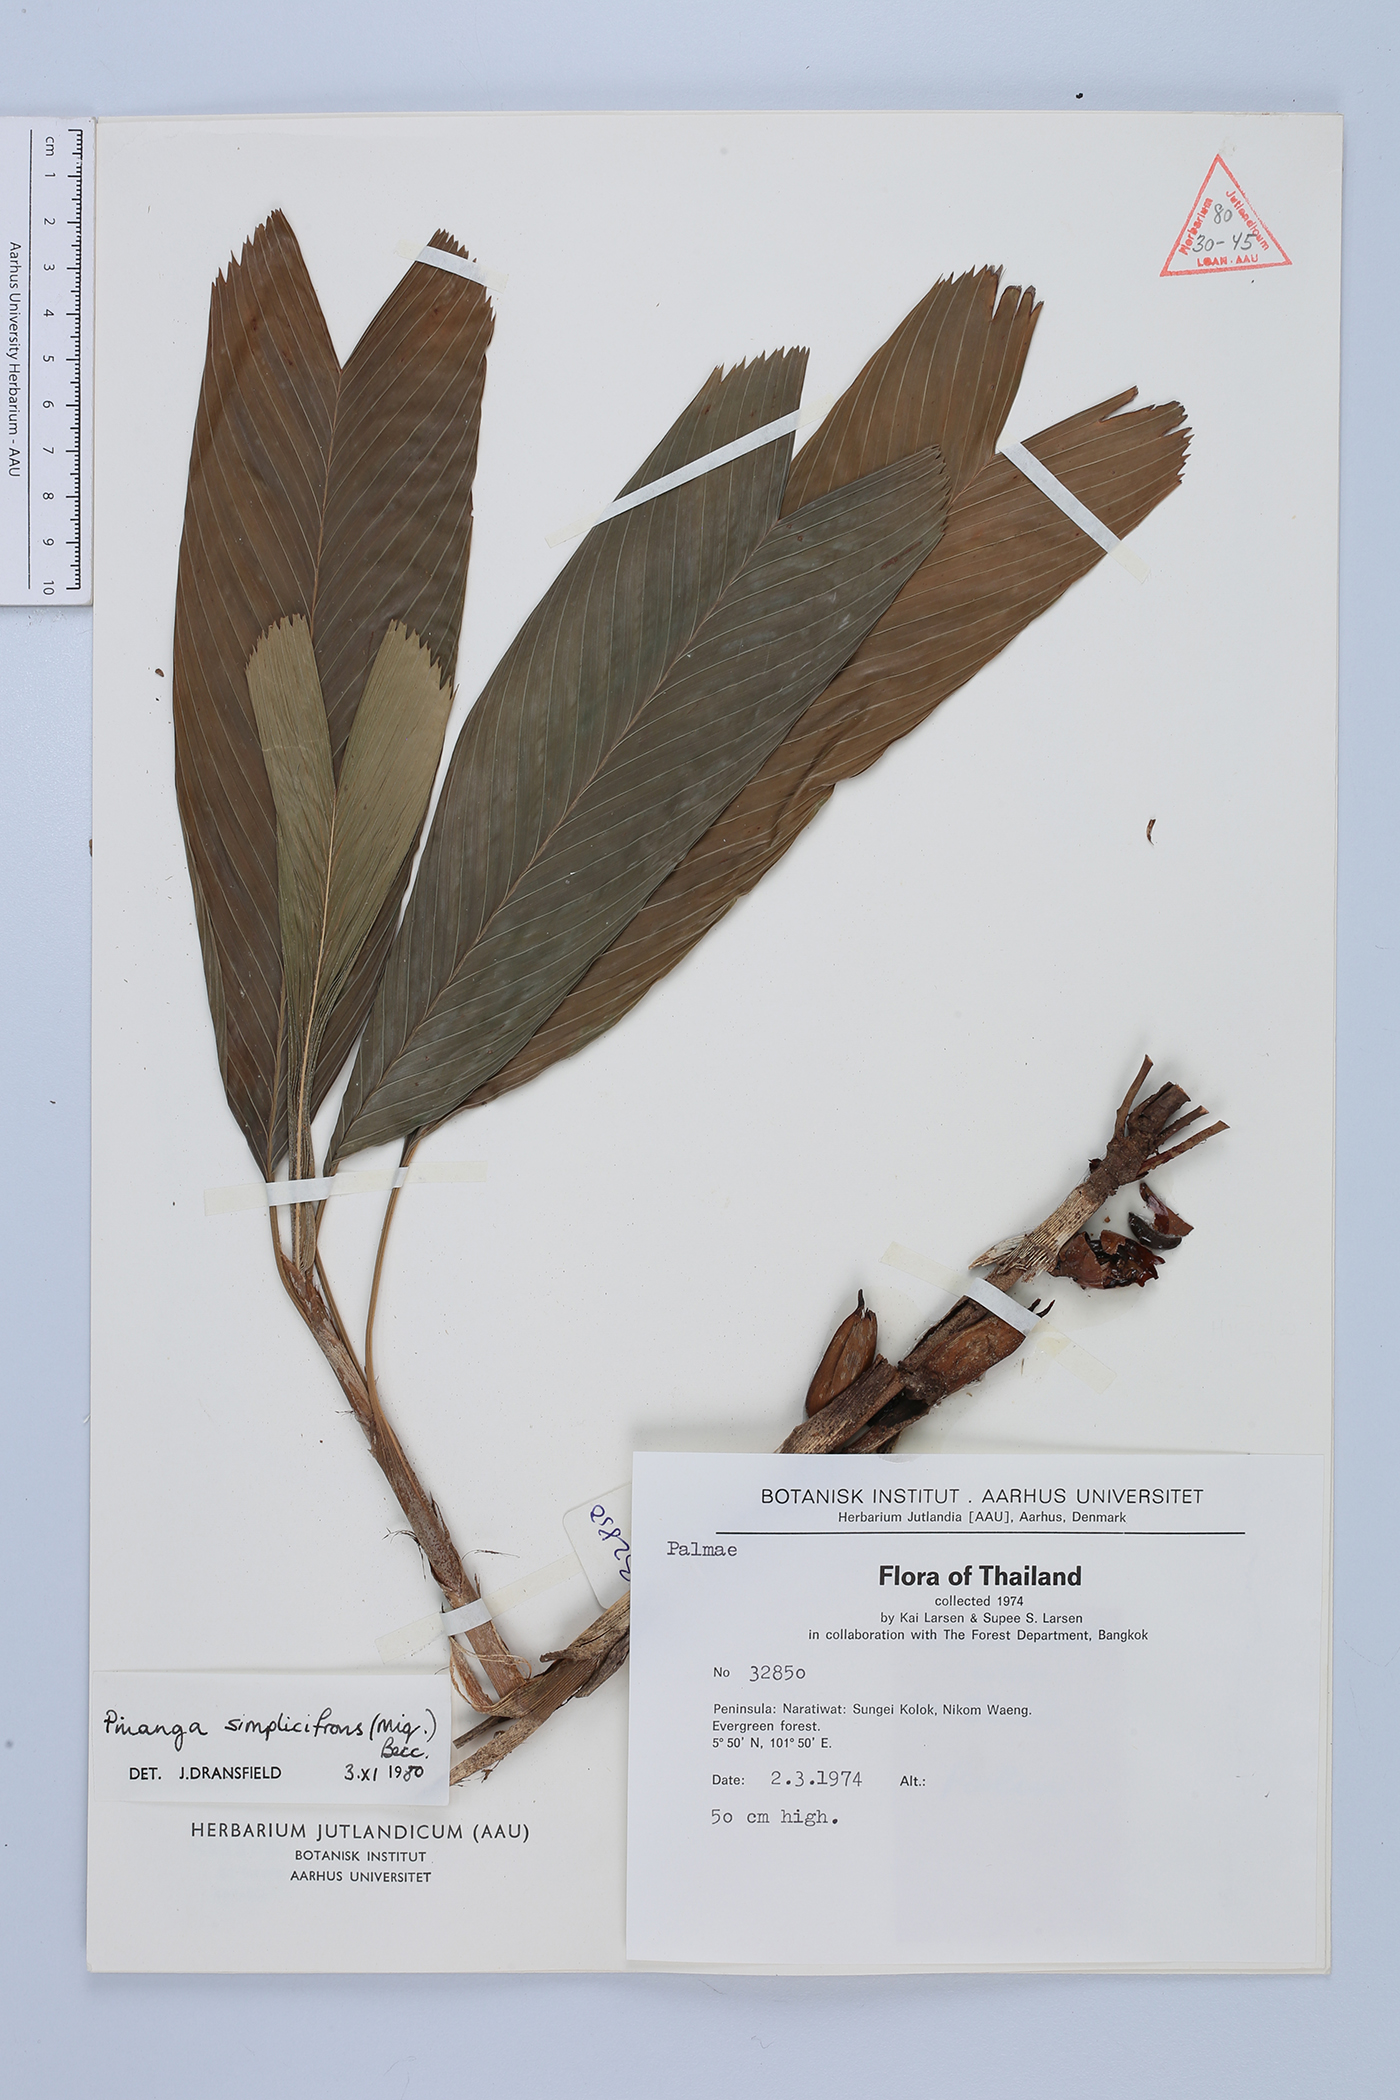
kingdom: Plantae
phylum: Tracheophyta
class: Liliopsida
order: Arecales
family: Arecaceae
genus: Pinanga
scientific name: Pinanga simplicifrons
